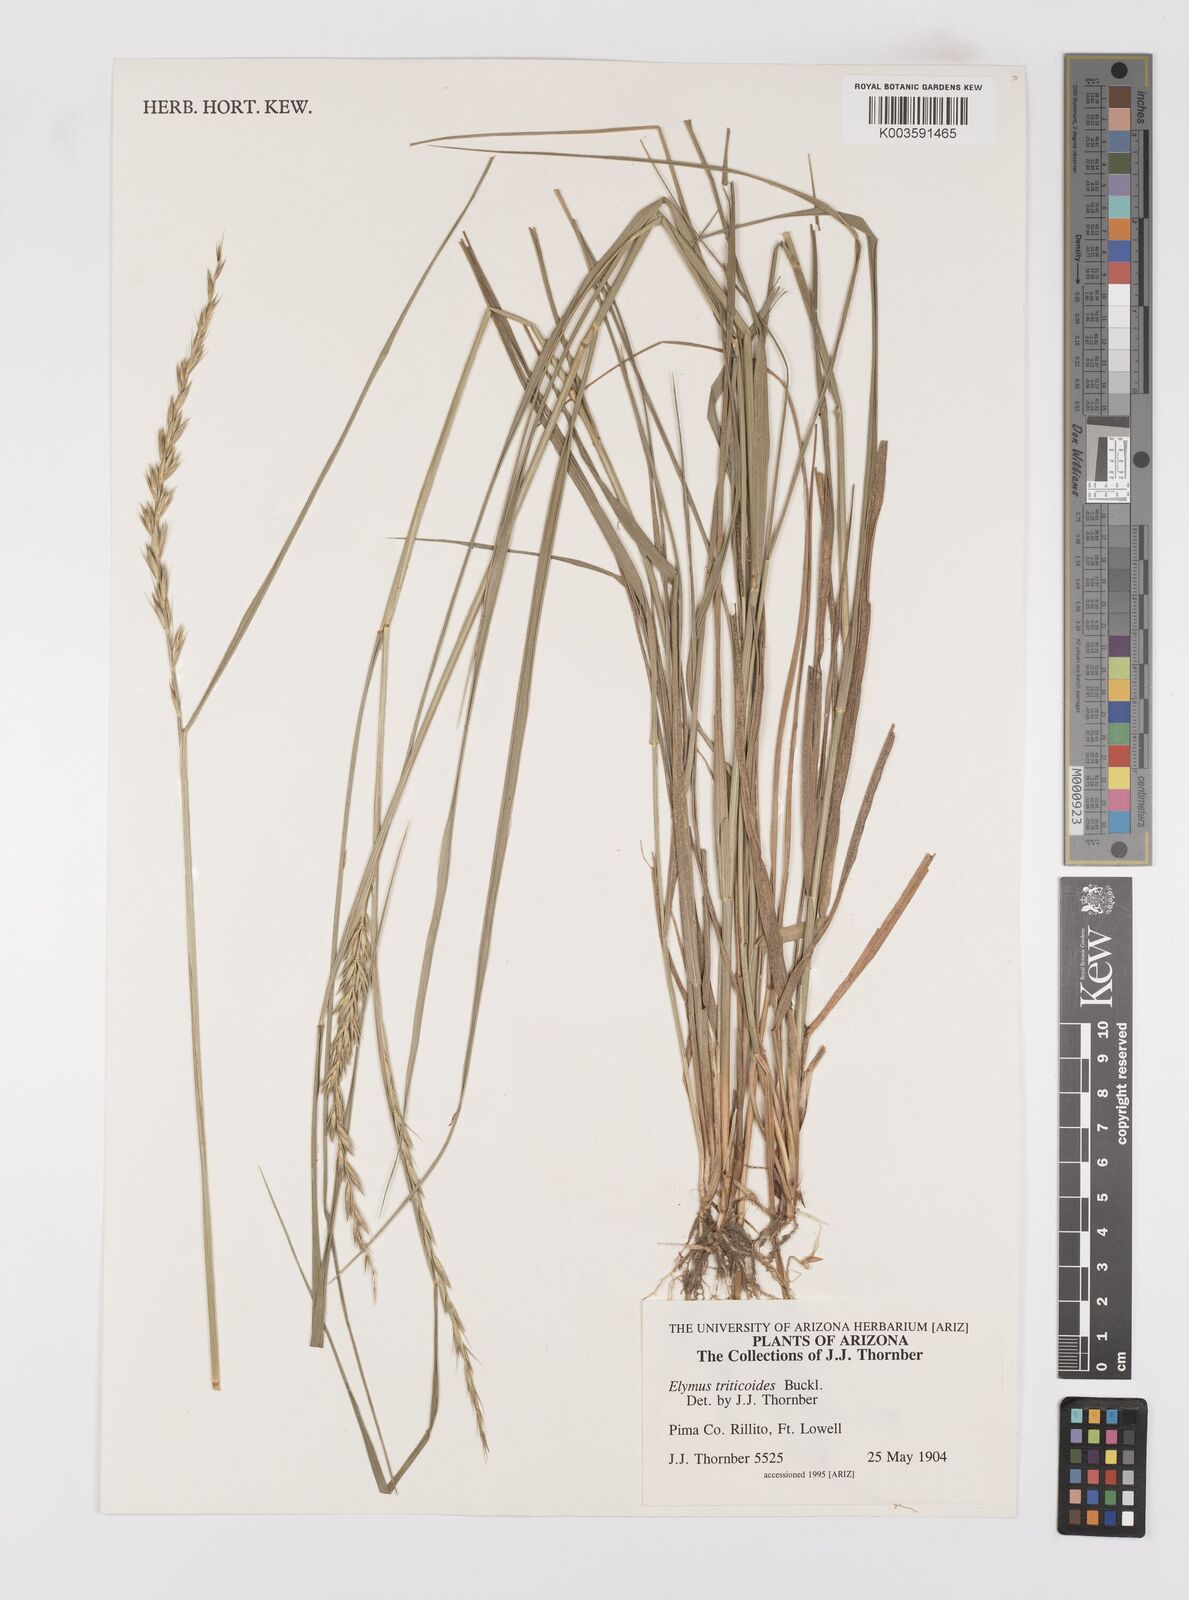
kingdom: Plantae
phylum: Tracheophyta
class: Liliopsida
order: Poales
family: Poaceae
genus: Leymus
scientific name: Leymus triticoides
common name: Beardless wild rye
